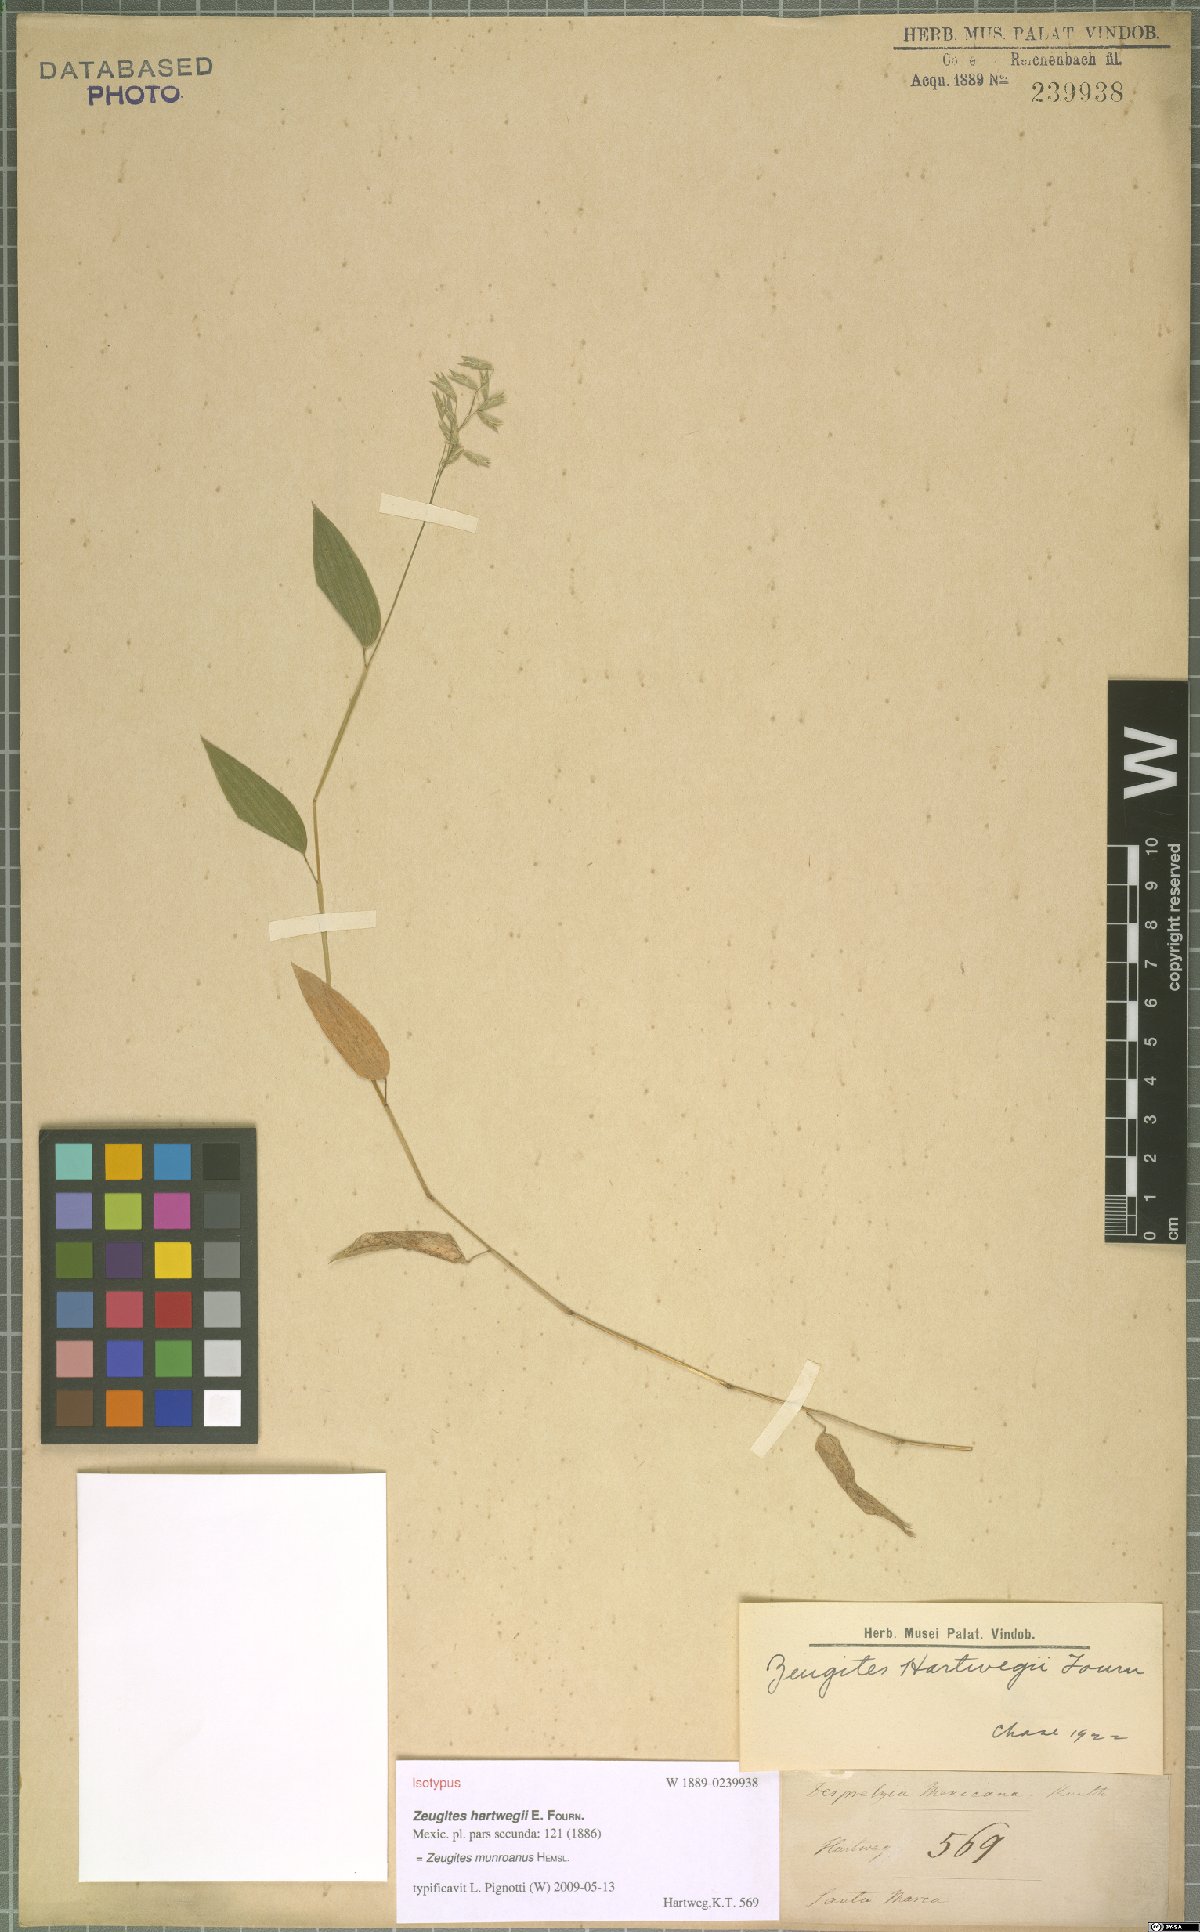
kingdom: Plantae
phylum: Tracheophyta
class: Liliopsida
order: Poales
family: Poaceae
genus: Zeugites
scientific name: Zeugites munroanus
